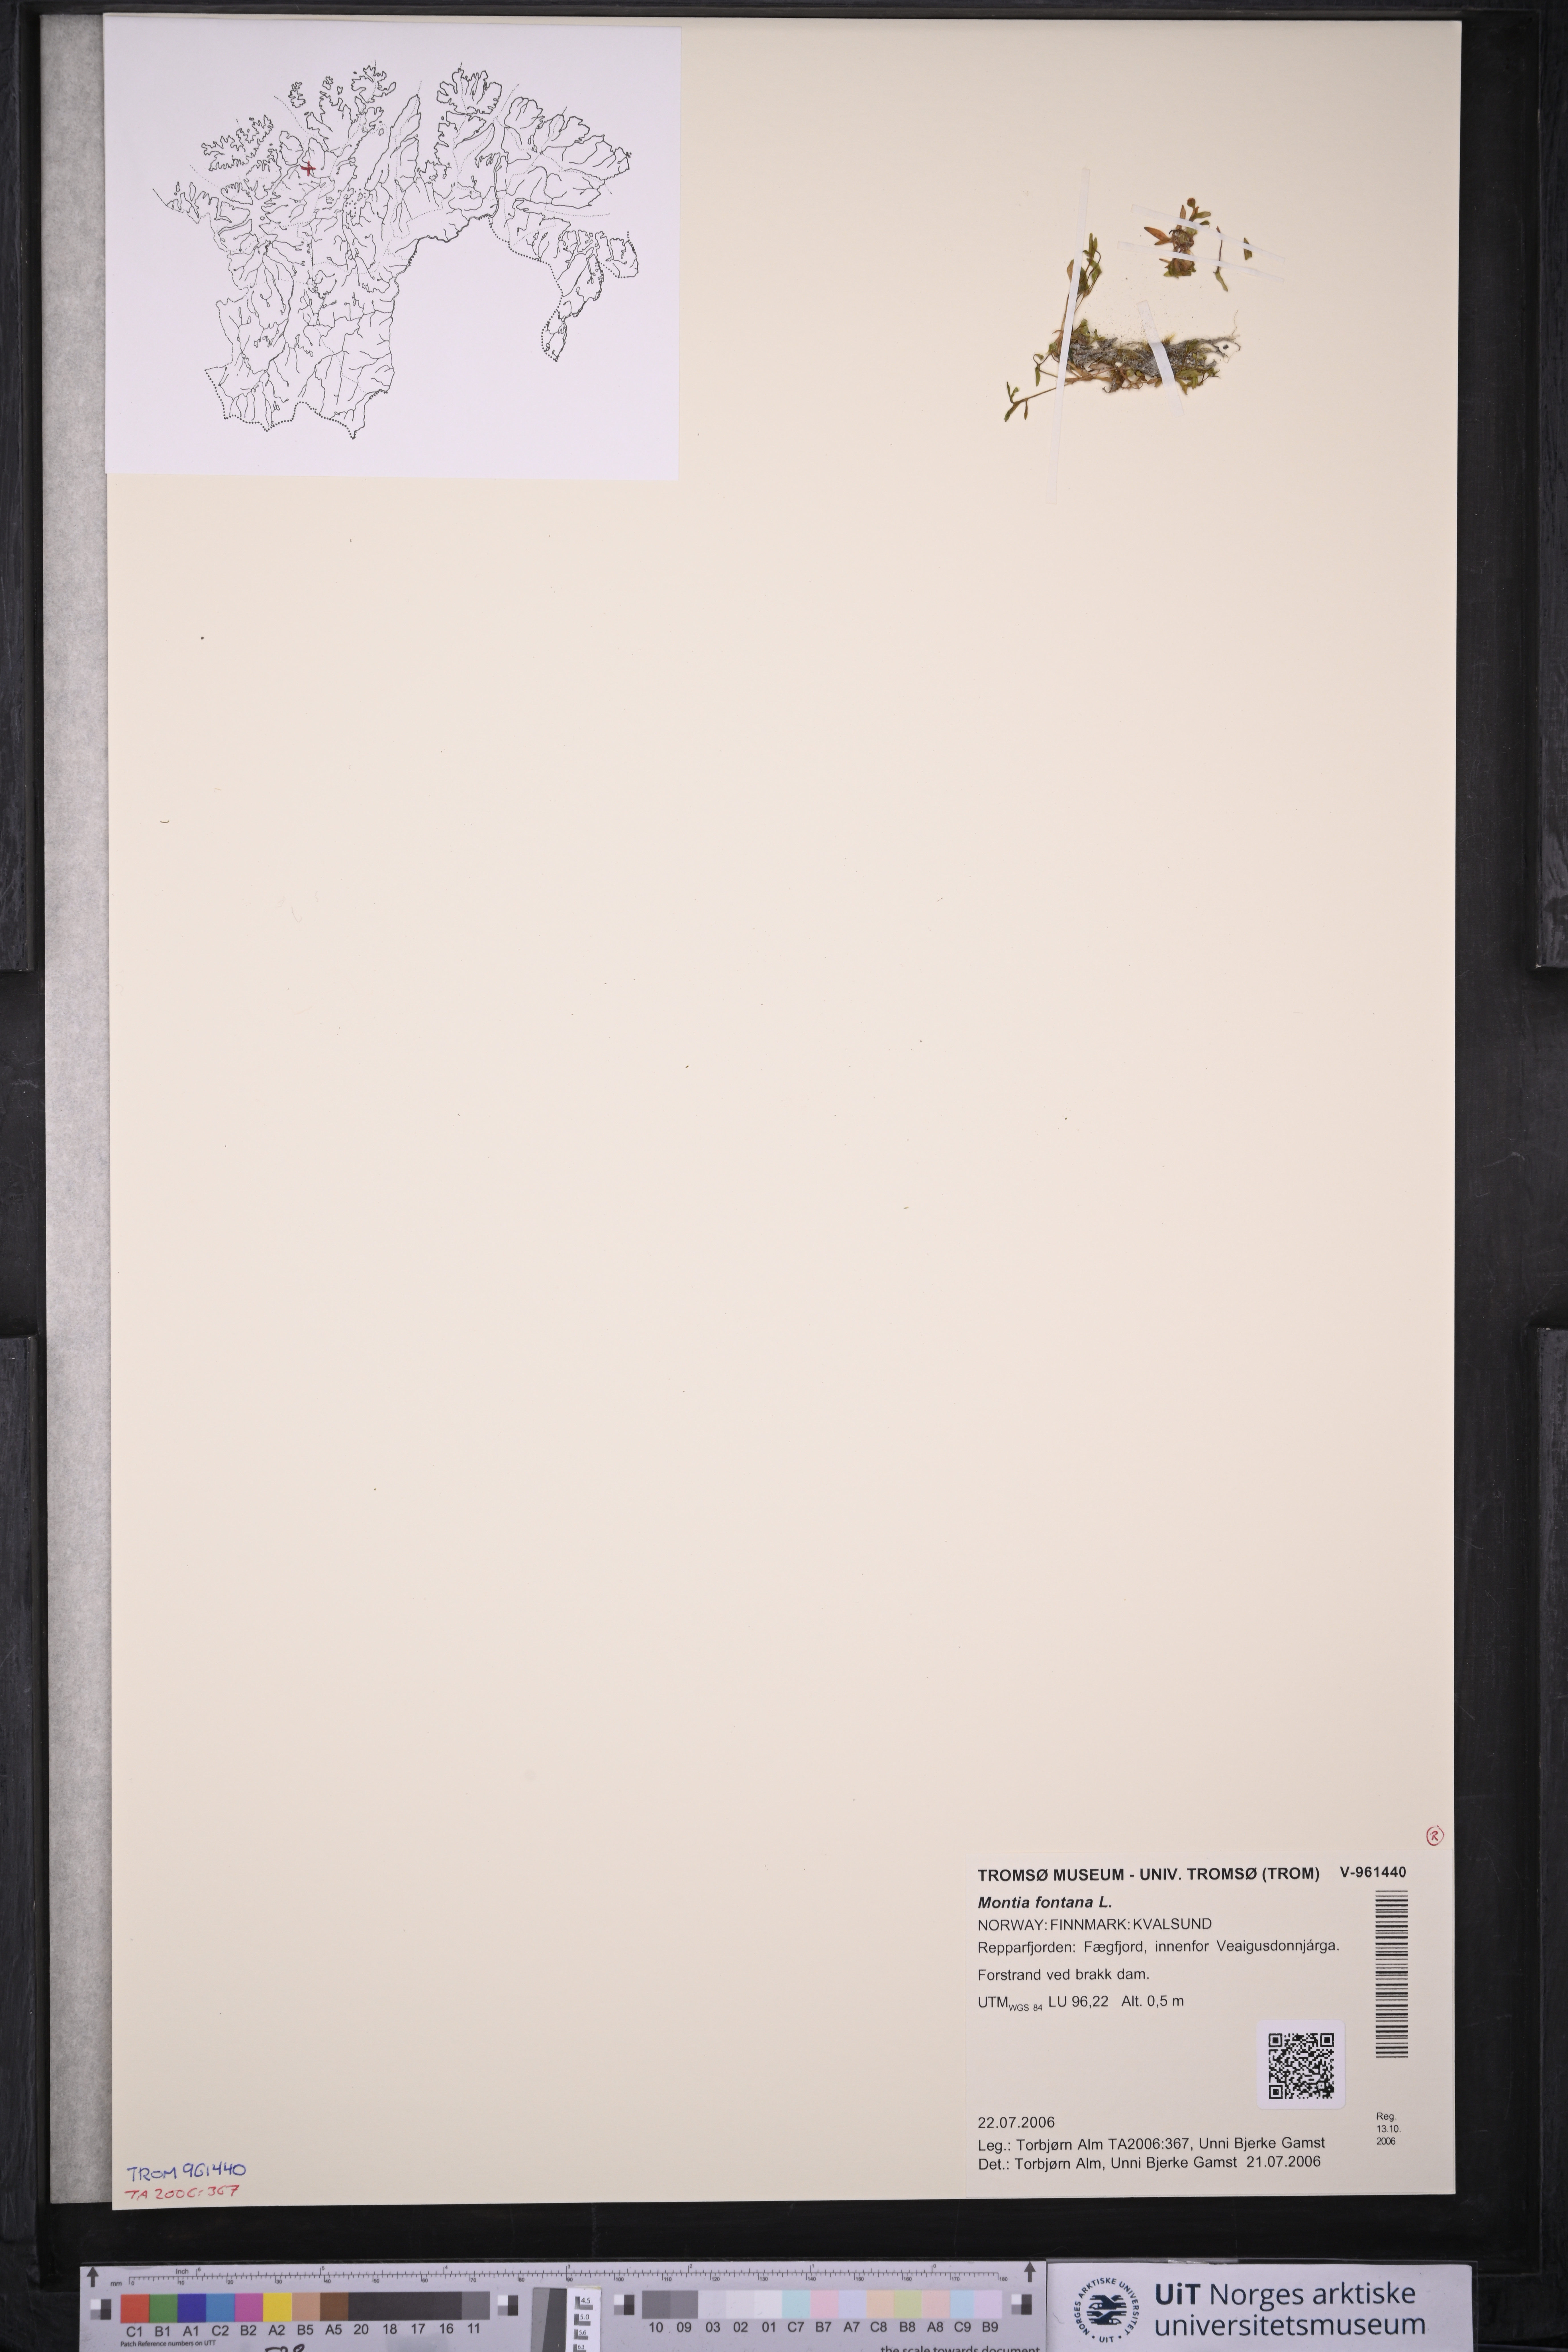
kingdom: Plantae
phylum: Tracheophyta
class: Magnoliopsida
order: Caryophyllales
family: Montiaceae
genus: Montia
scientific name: Montia fontana
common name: Blinks
